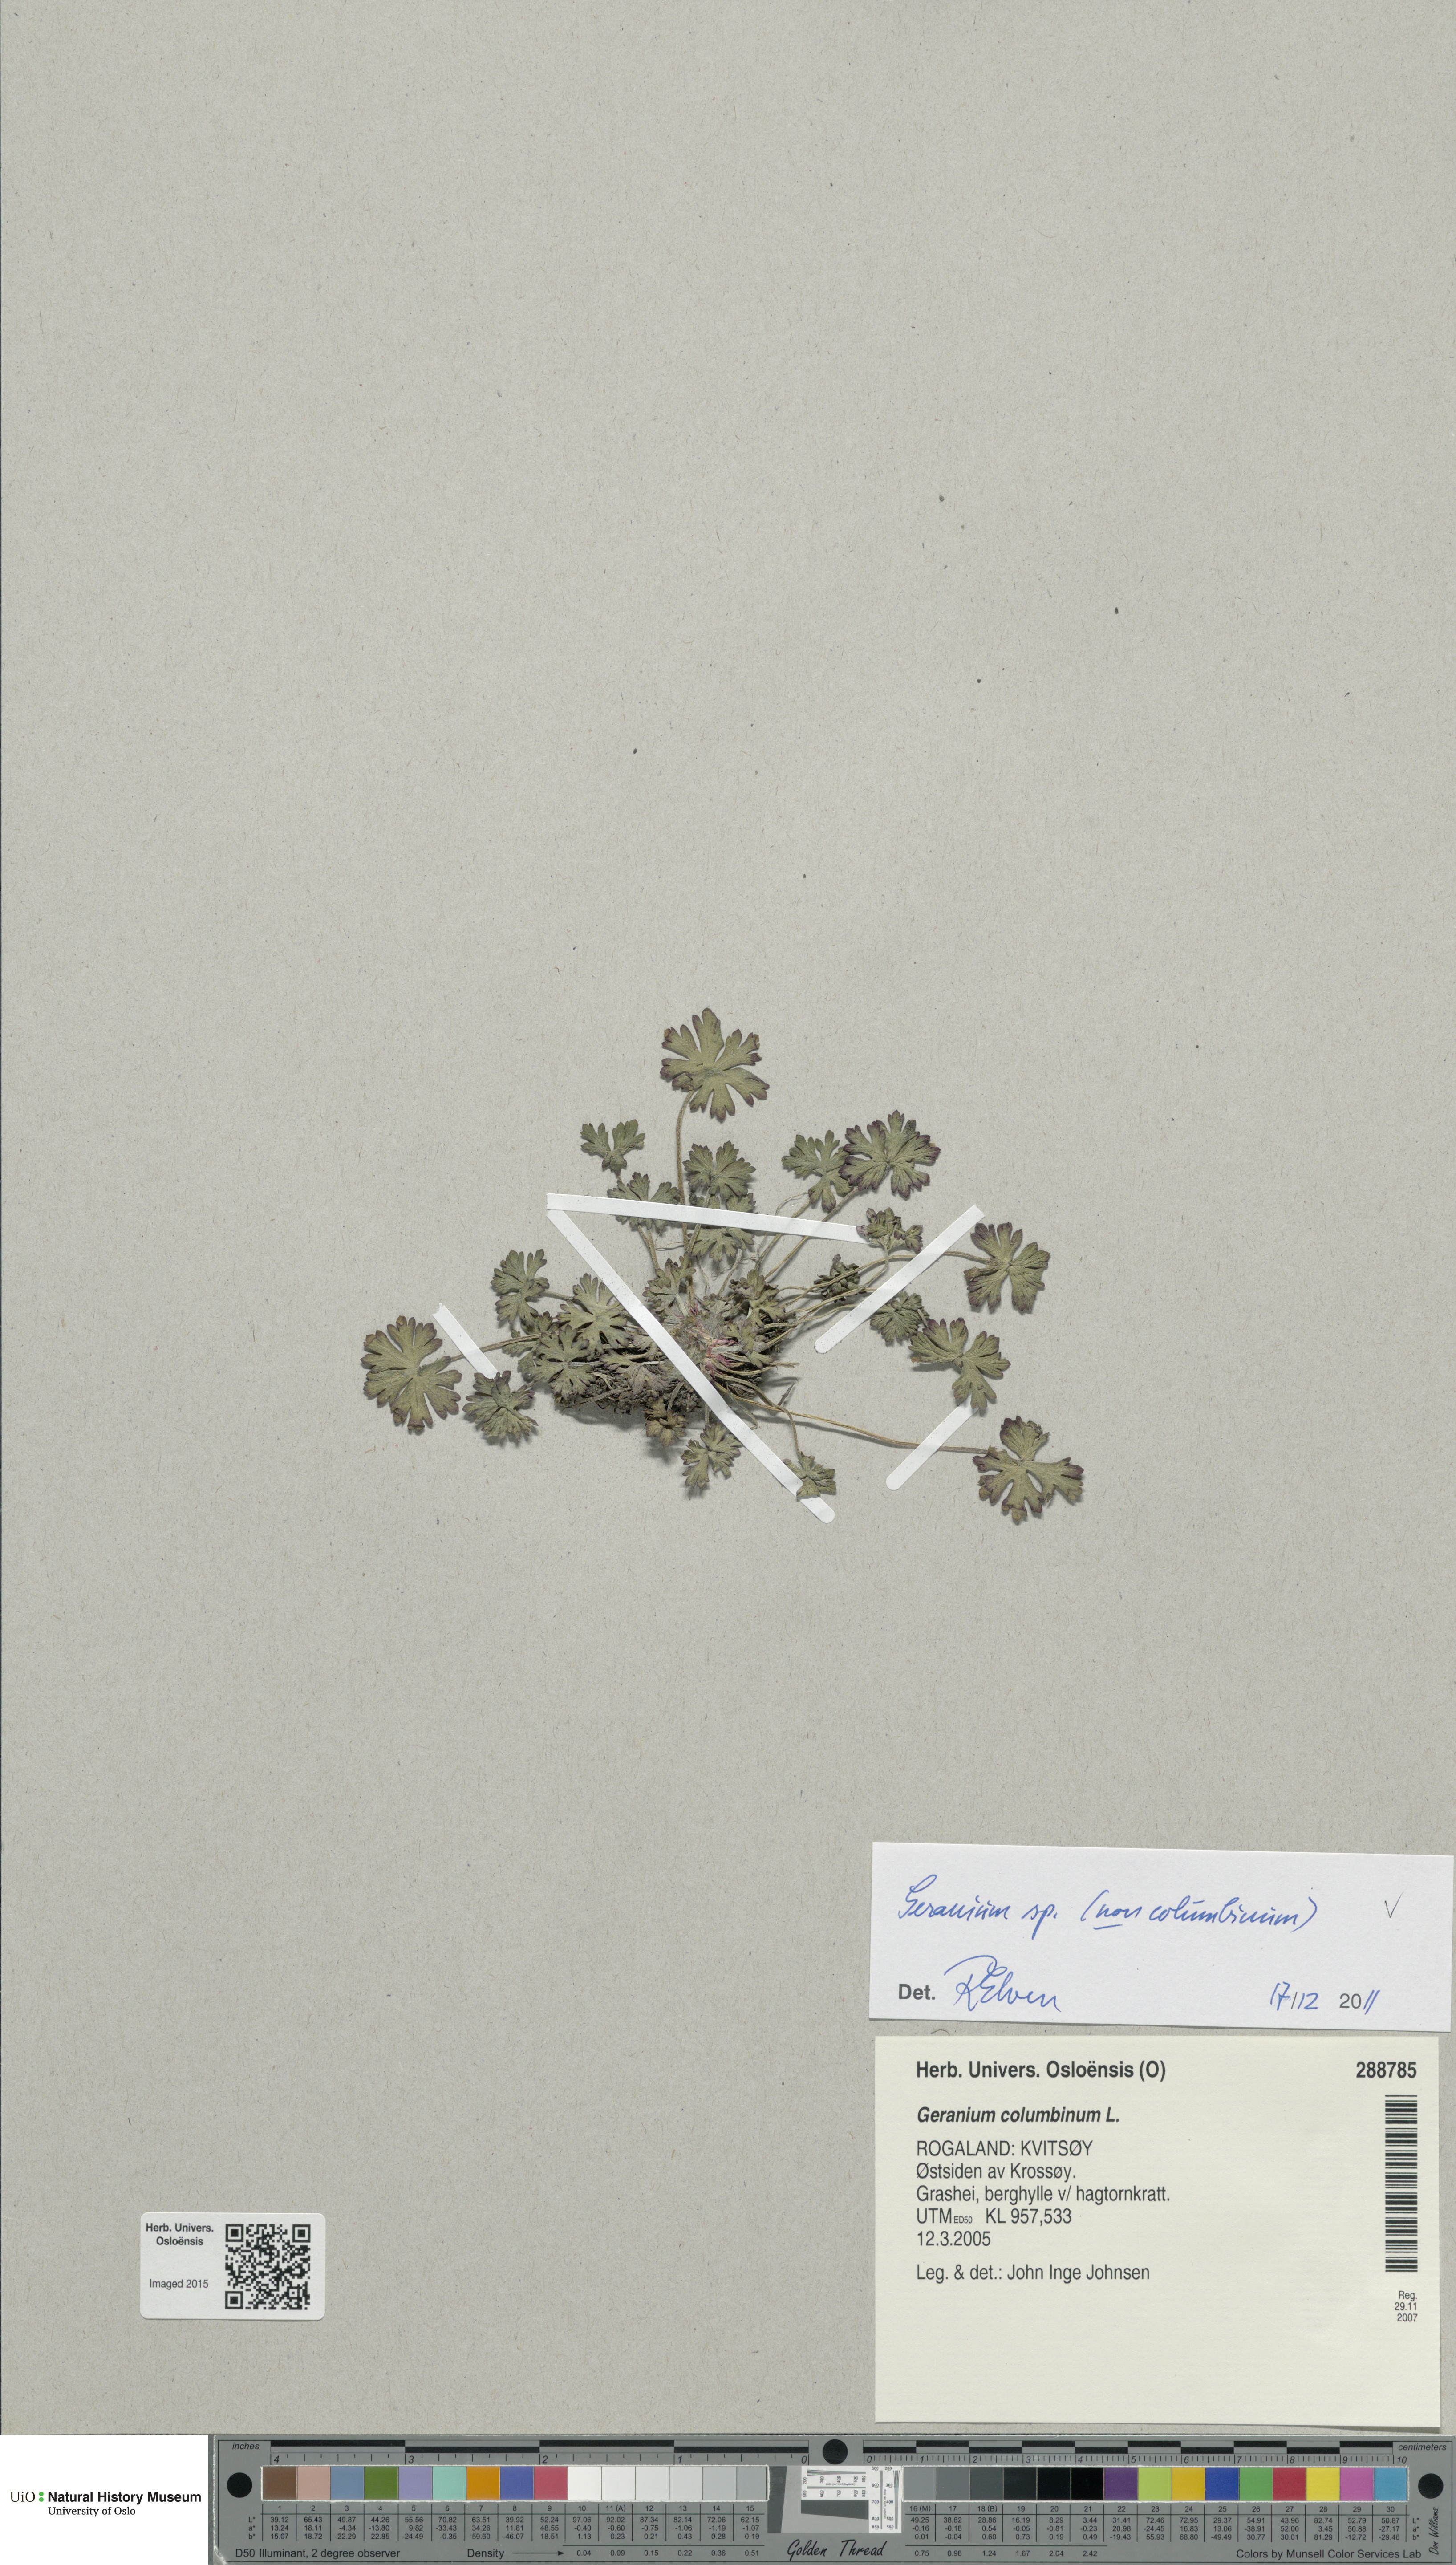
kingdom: Plantae
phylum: Tracheophyta
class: Magnoliopsida
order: Geraniales
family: Geraniaceae
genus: Geranium
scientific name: Geranium
